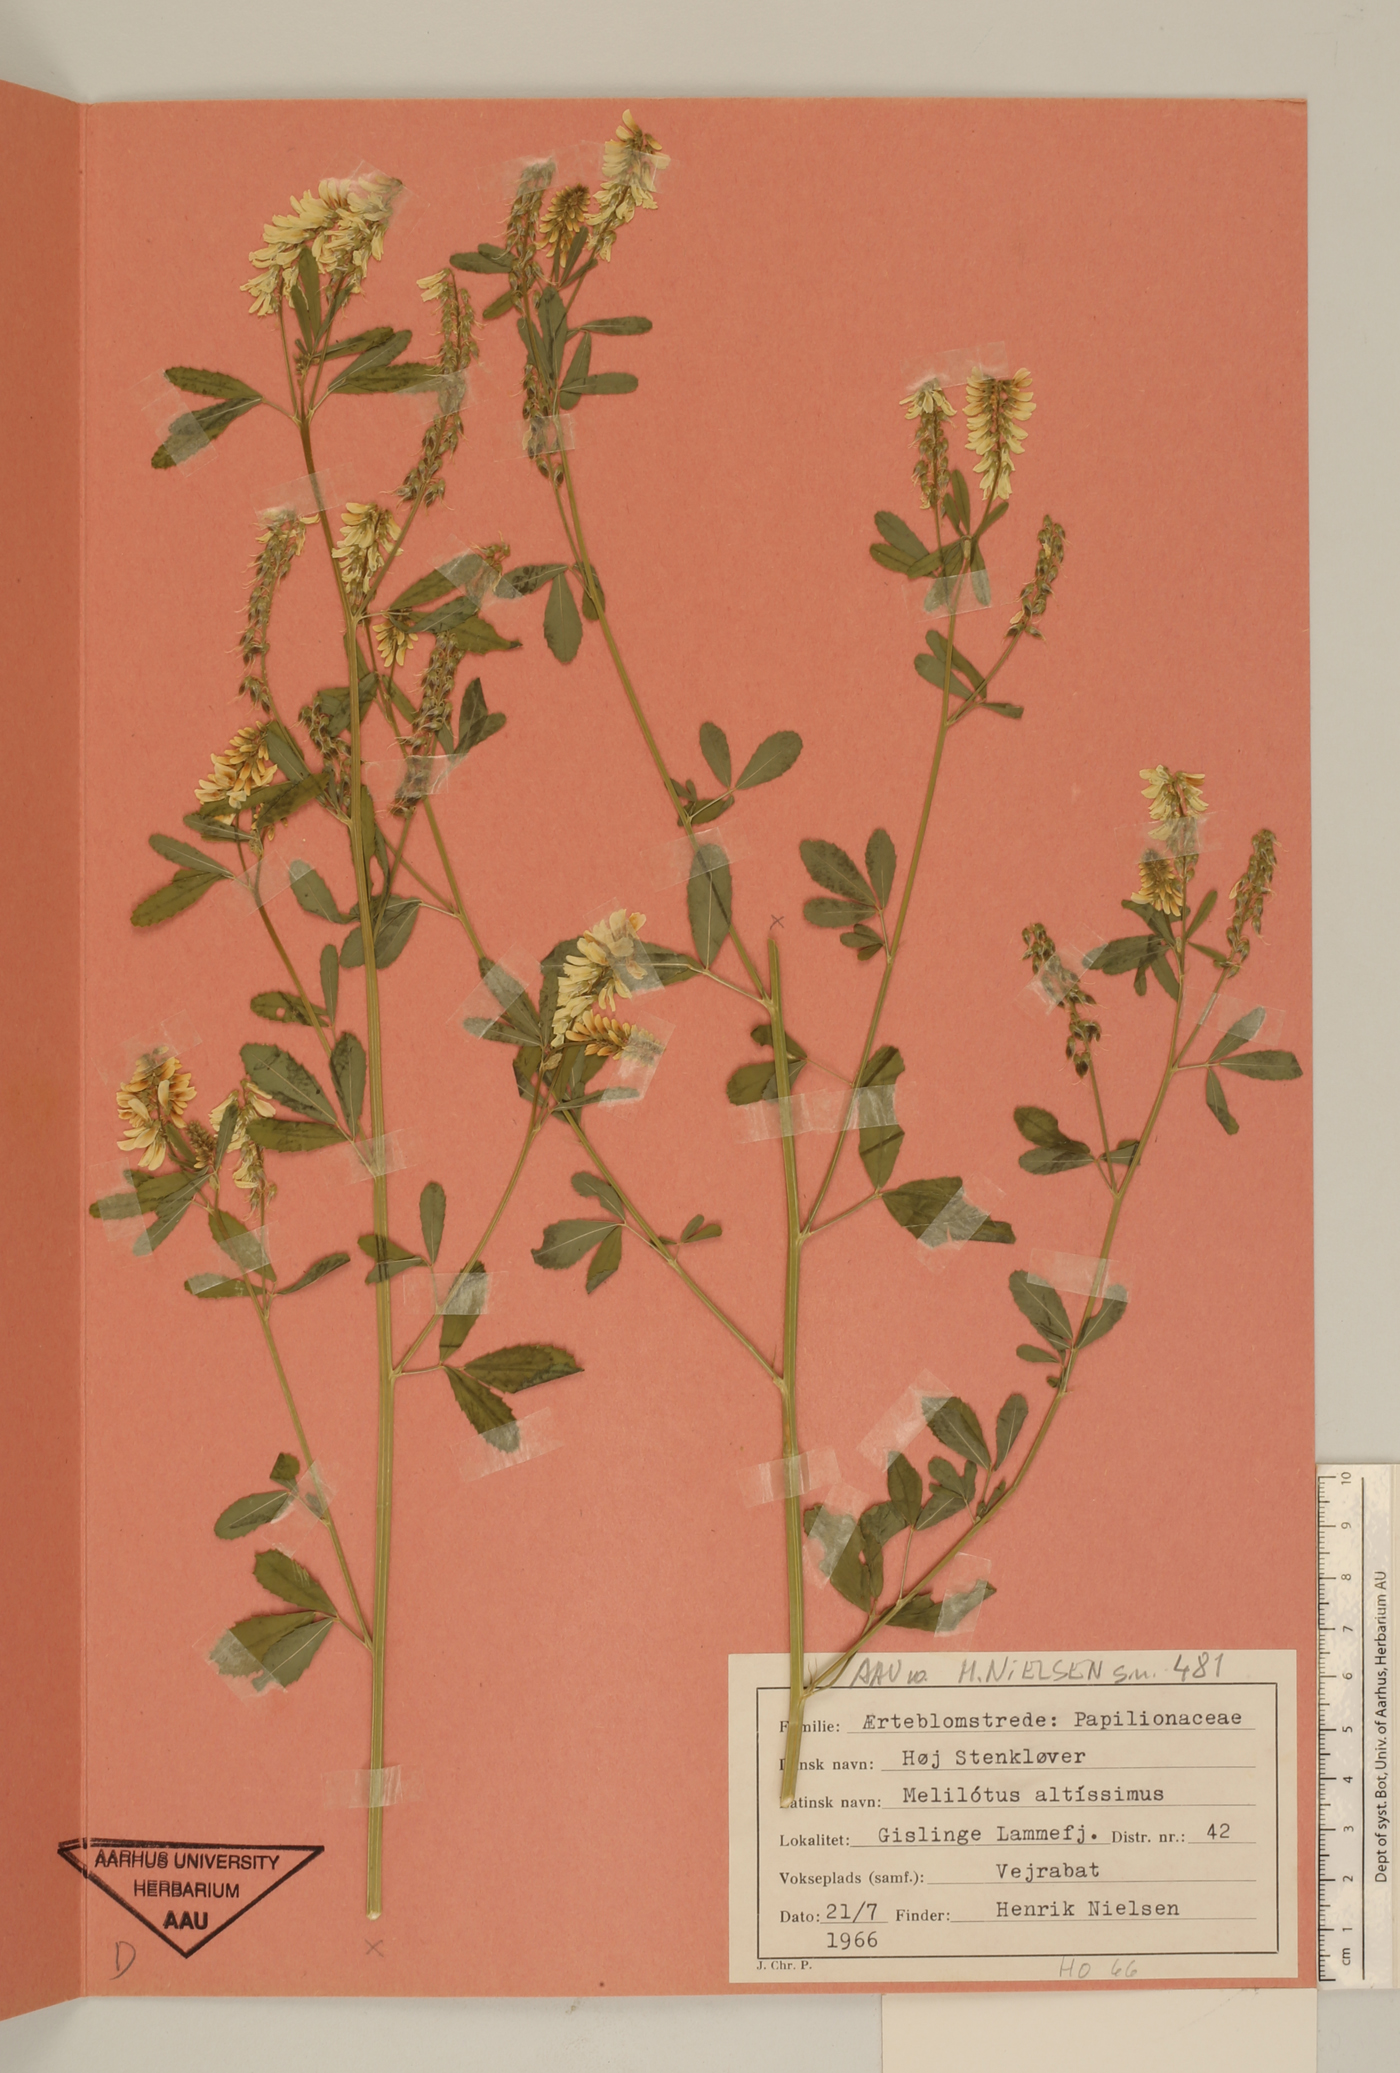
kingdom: Plantae
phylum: Tracheophyta
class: Magnoliopsida
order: Fabales
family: Fabaceae
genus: Melilotus
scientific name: Melilotus altissimus
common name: Tall melilot
